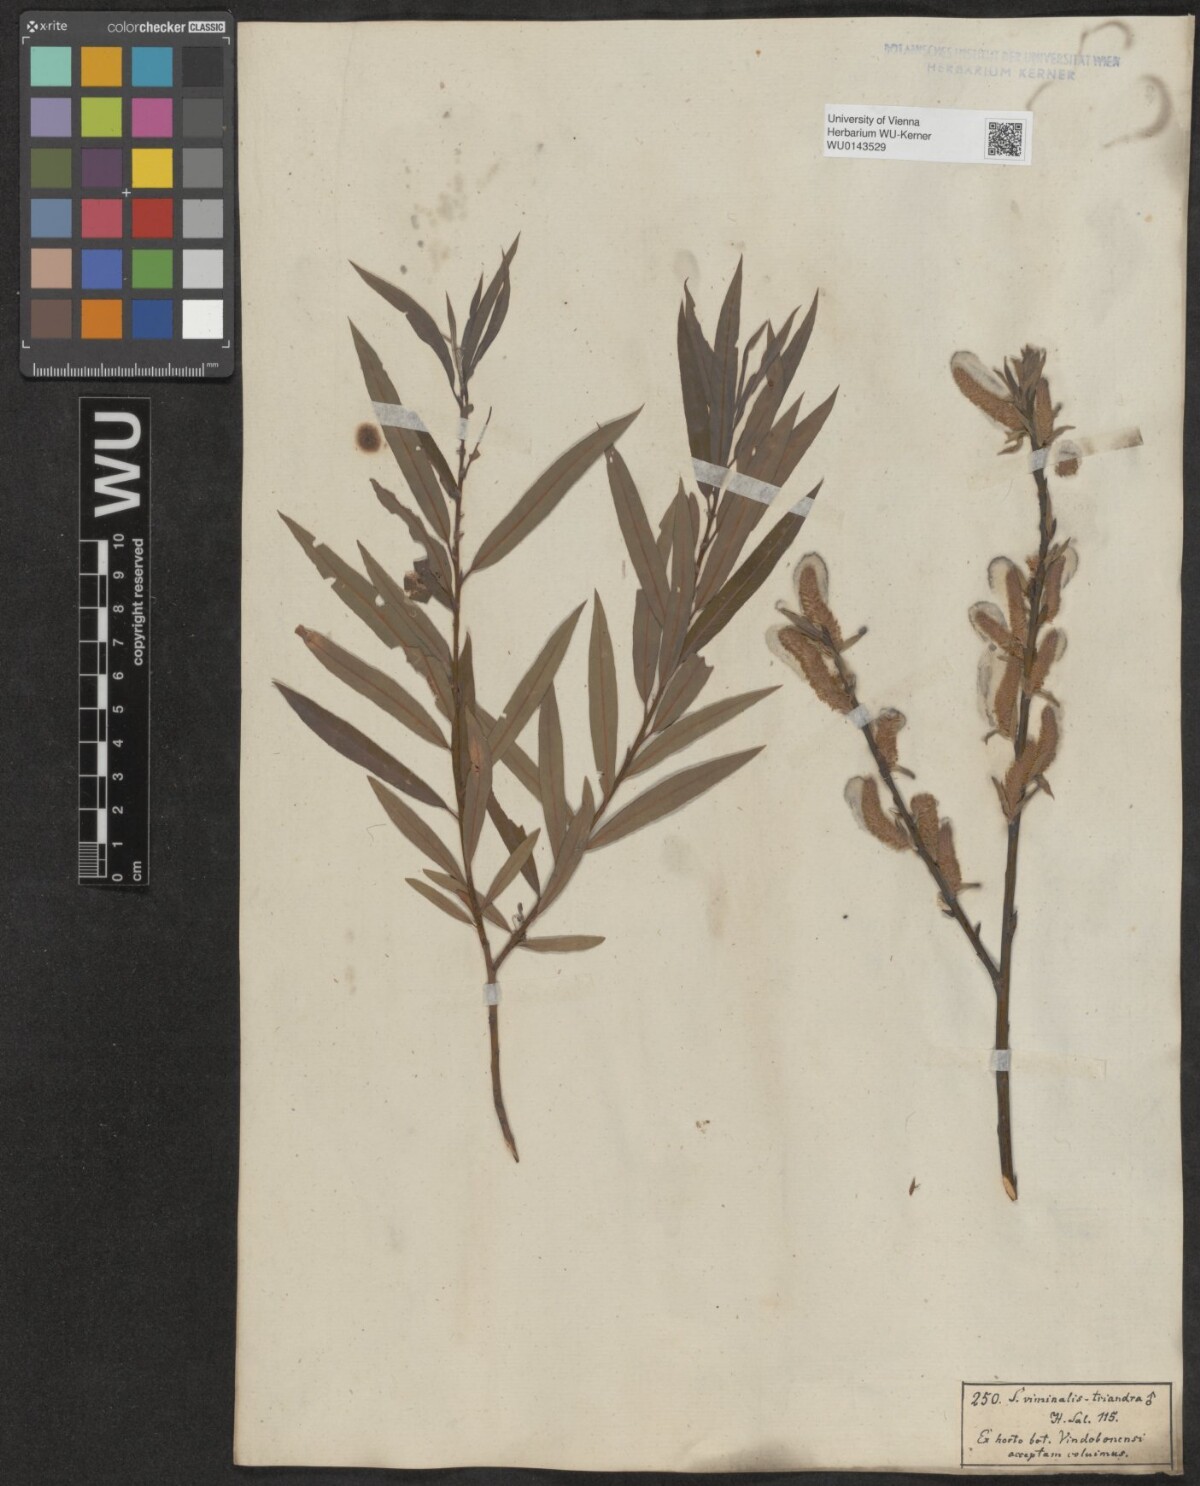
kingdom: Plantae
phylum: Tracheophyta
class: Magnoliopsida
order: Malpighiales
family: Salicaceae
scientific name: Salicaceae
